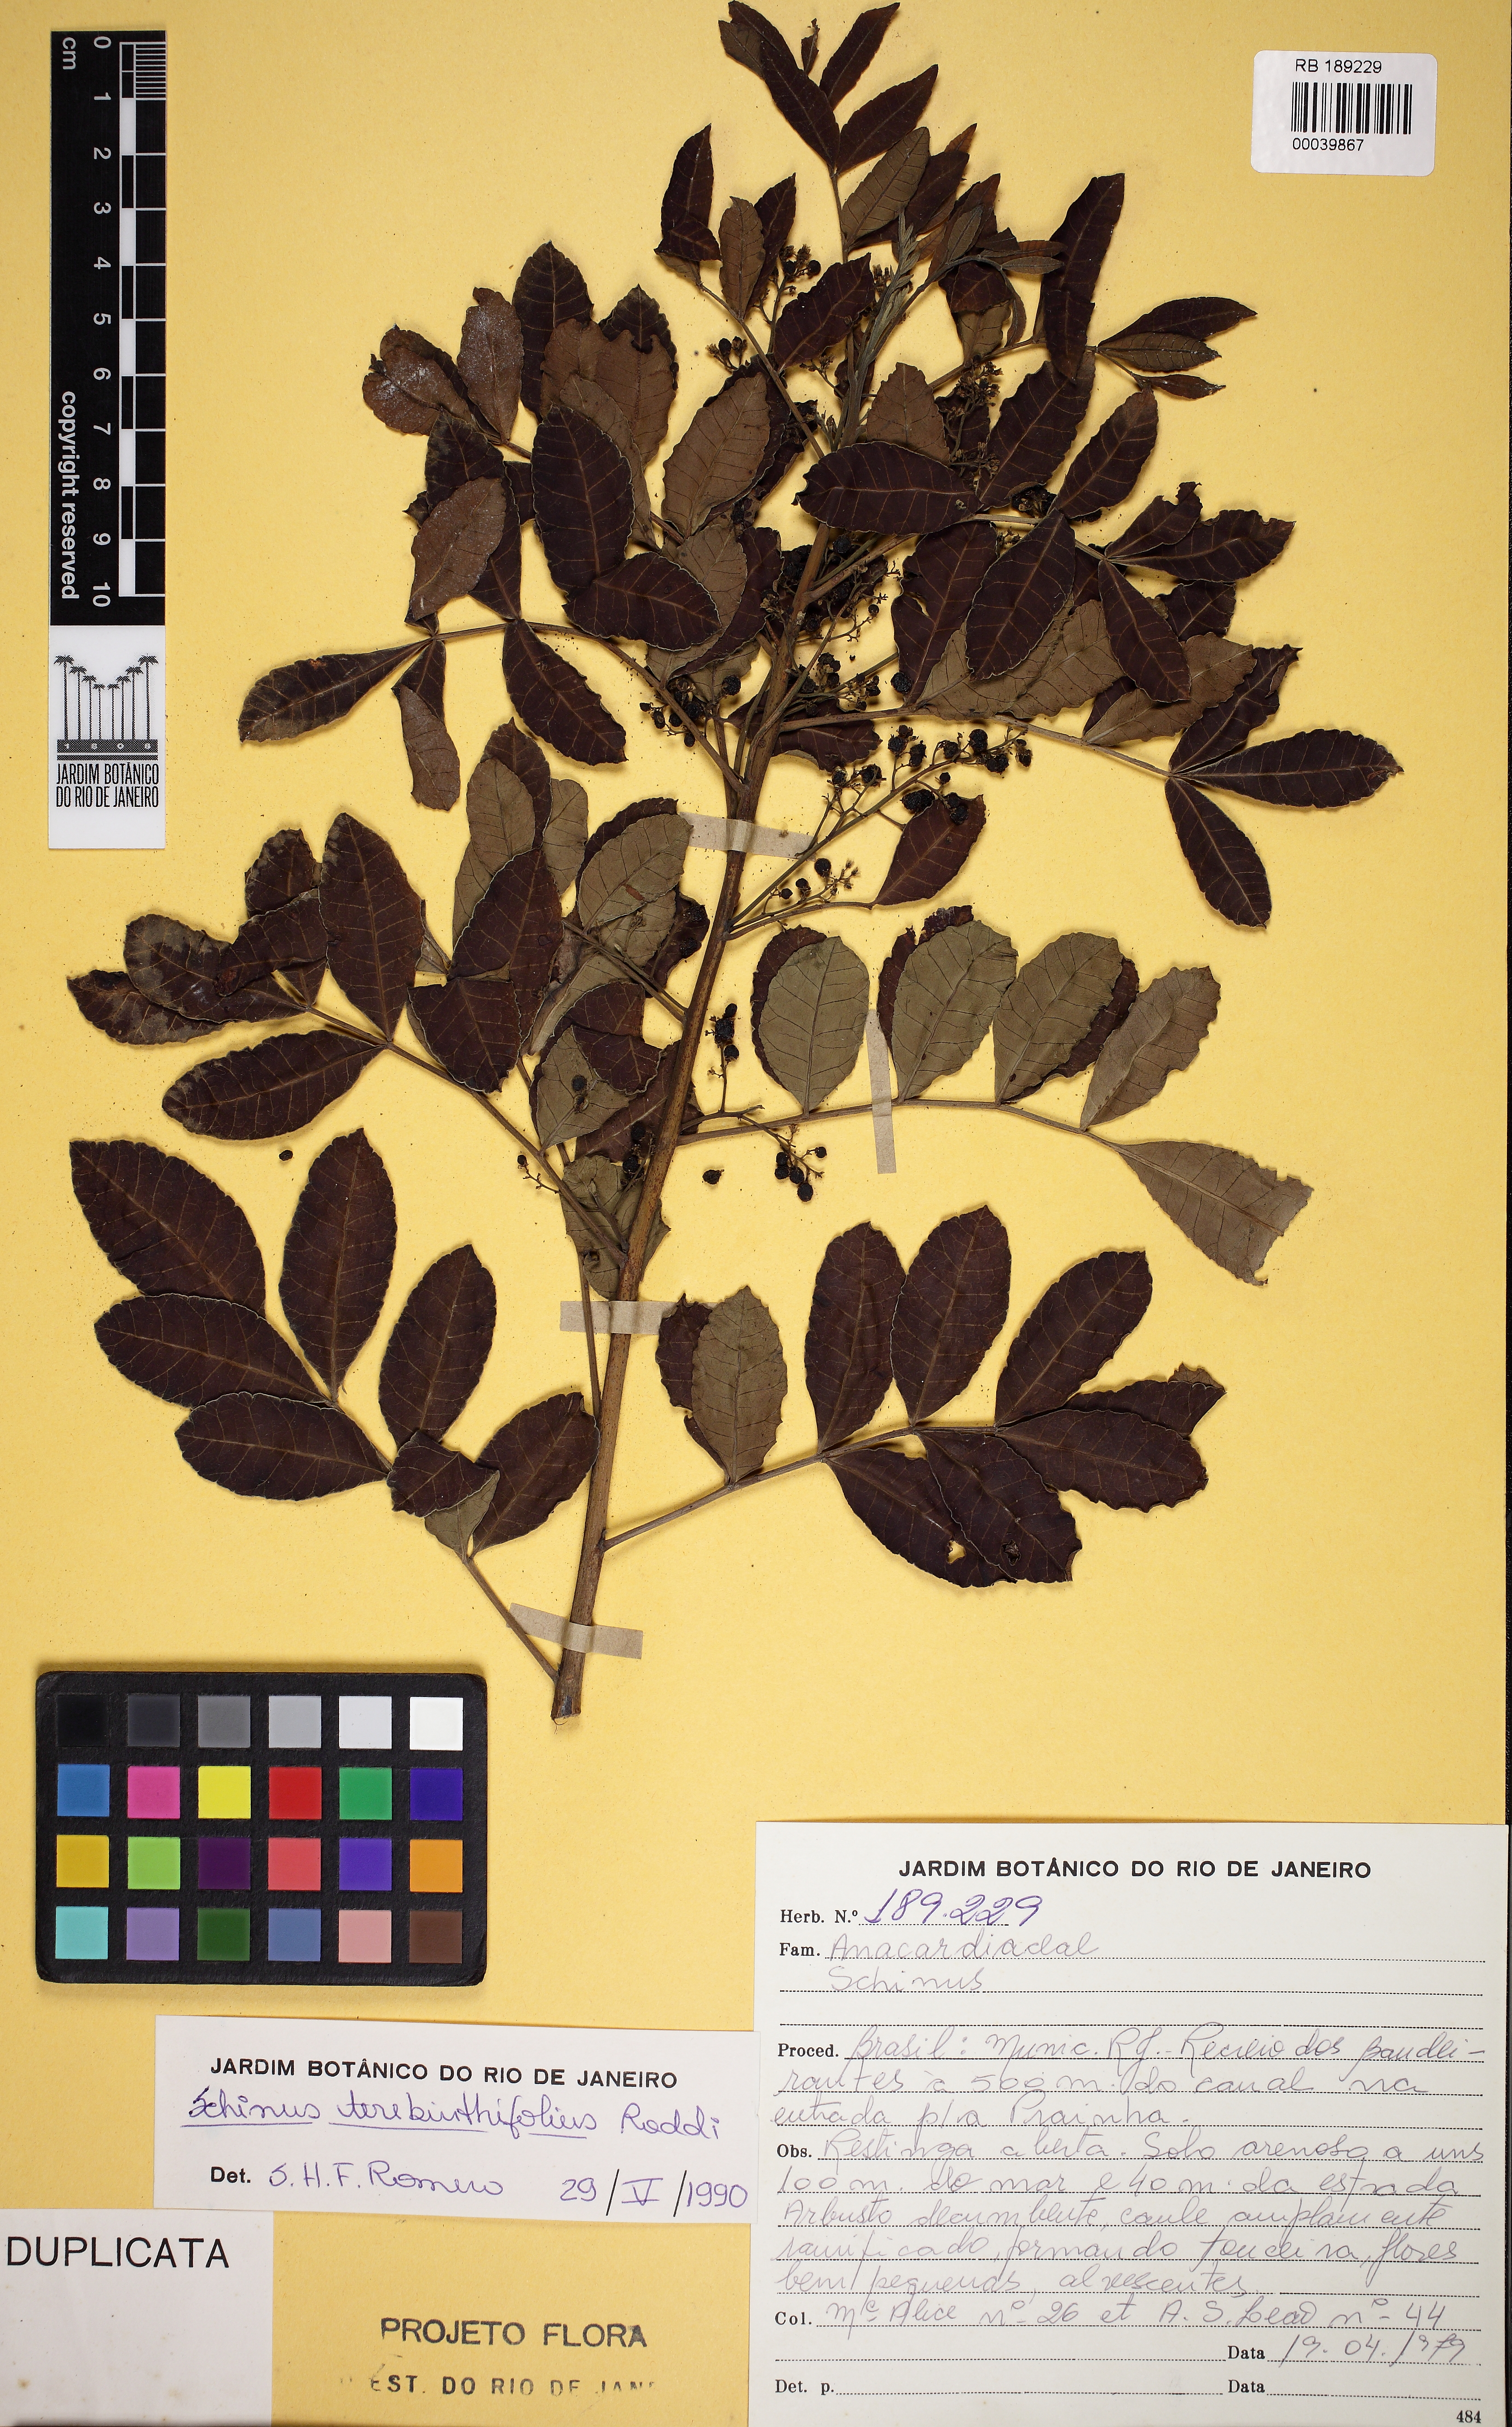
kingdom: Plantae
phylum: Tracheophyta
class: Magnoliopsida
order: Sapindales
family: Anacardiaceae
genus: Schinus
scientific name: Schinus terebinthifolia
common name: Brazilian peppertree
